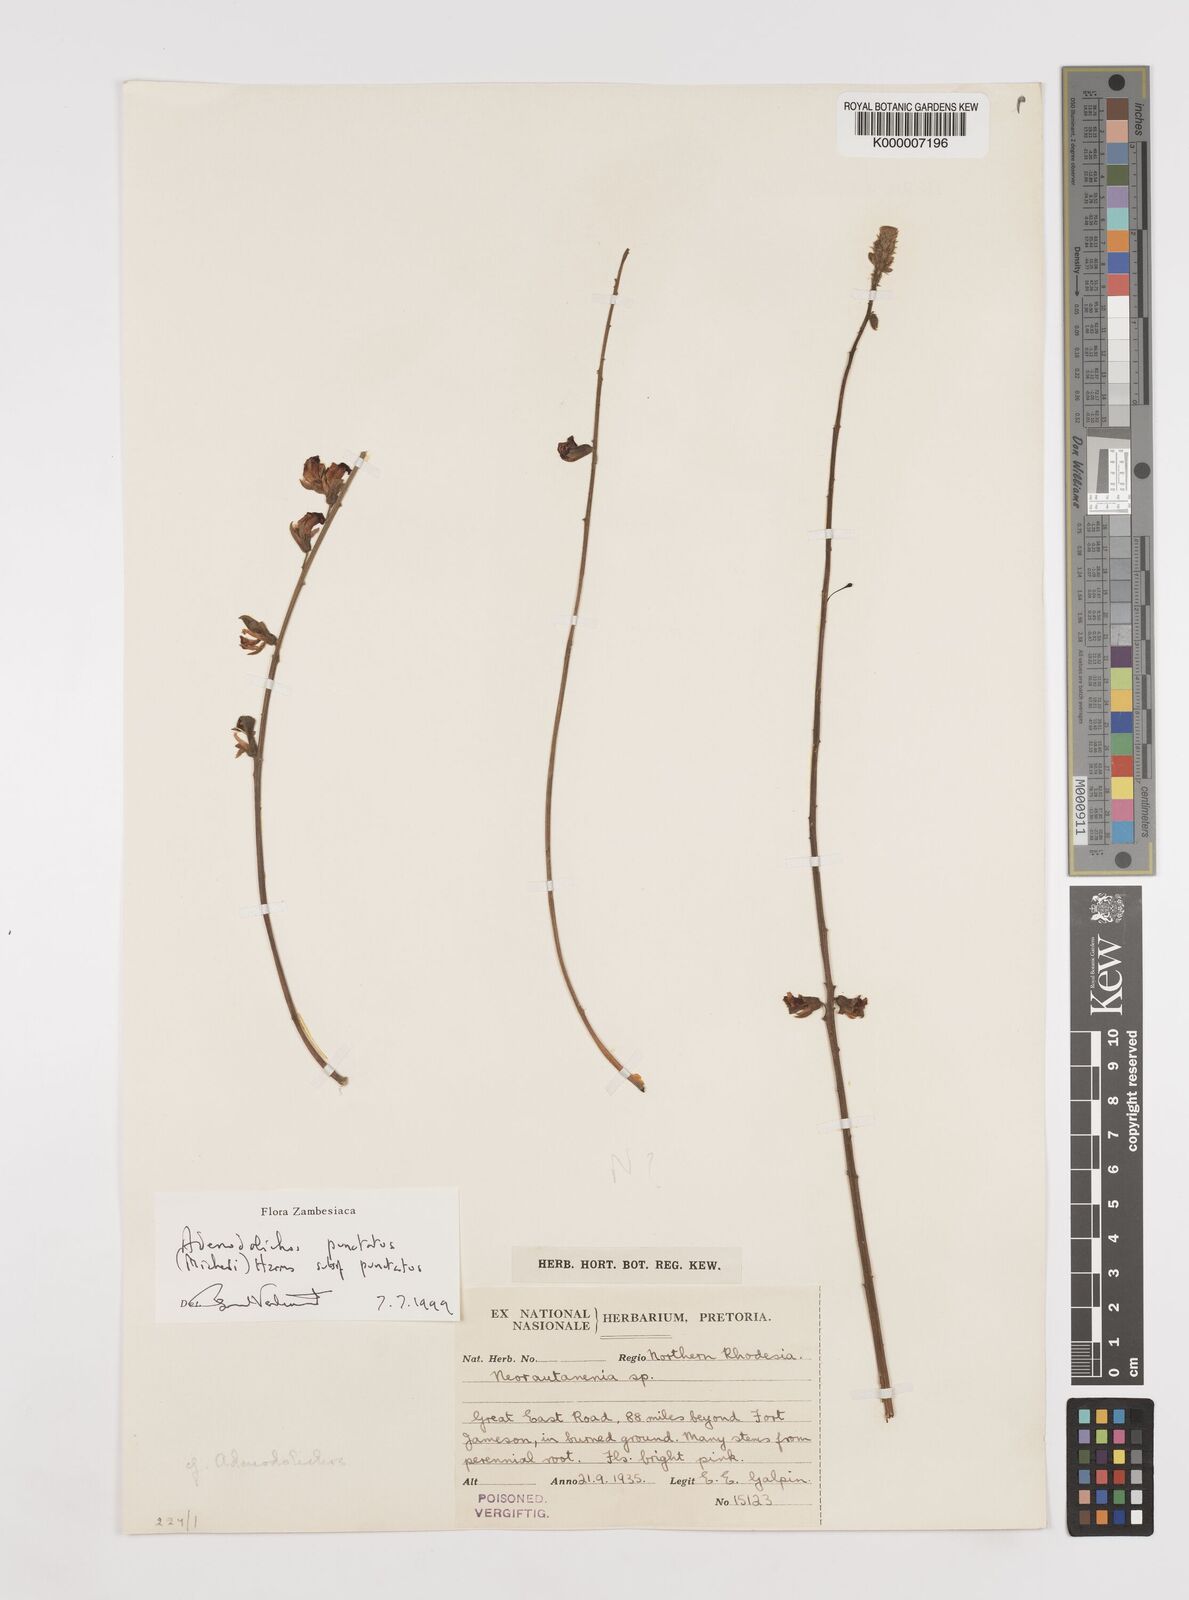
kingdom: Plantae
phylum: Tracheophyta
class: Magnoliopsida
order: Fabales
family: Fabaceae
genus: Adenodolichos
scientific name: Adenodolichos punctatus
